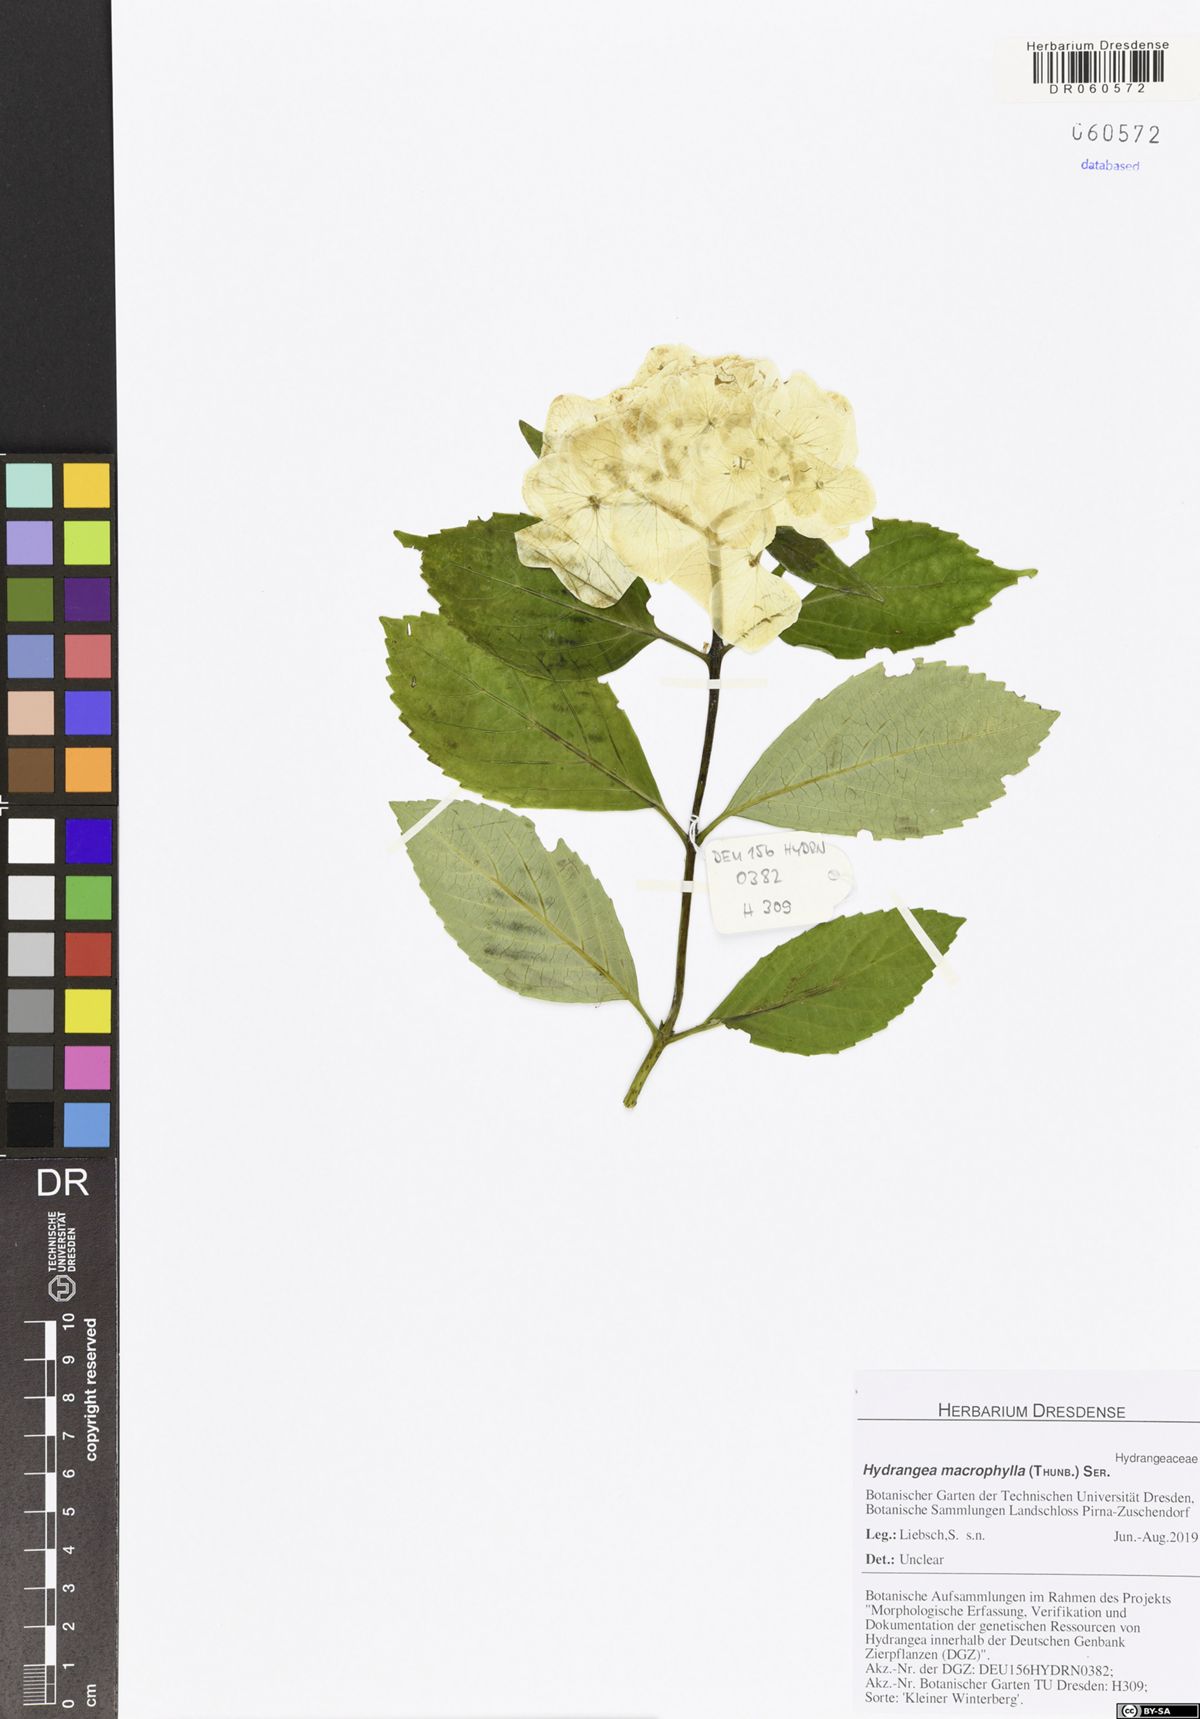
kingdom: Plantae
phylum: Tracheophyta
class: Magnoliopsida
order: Cornales
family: Hydrangeaceae
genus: Hydrangea
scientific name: Hydrangea macrophylla
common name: Hydrangea
